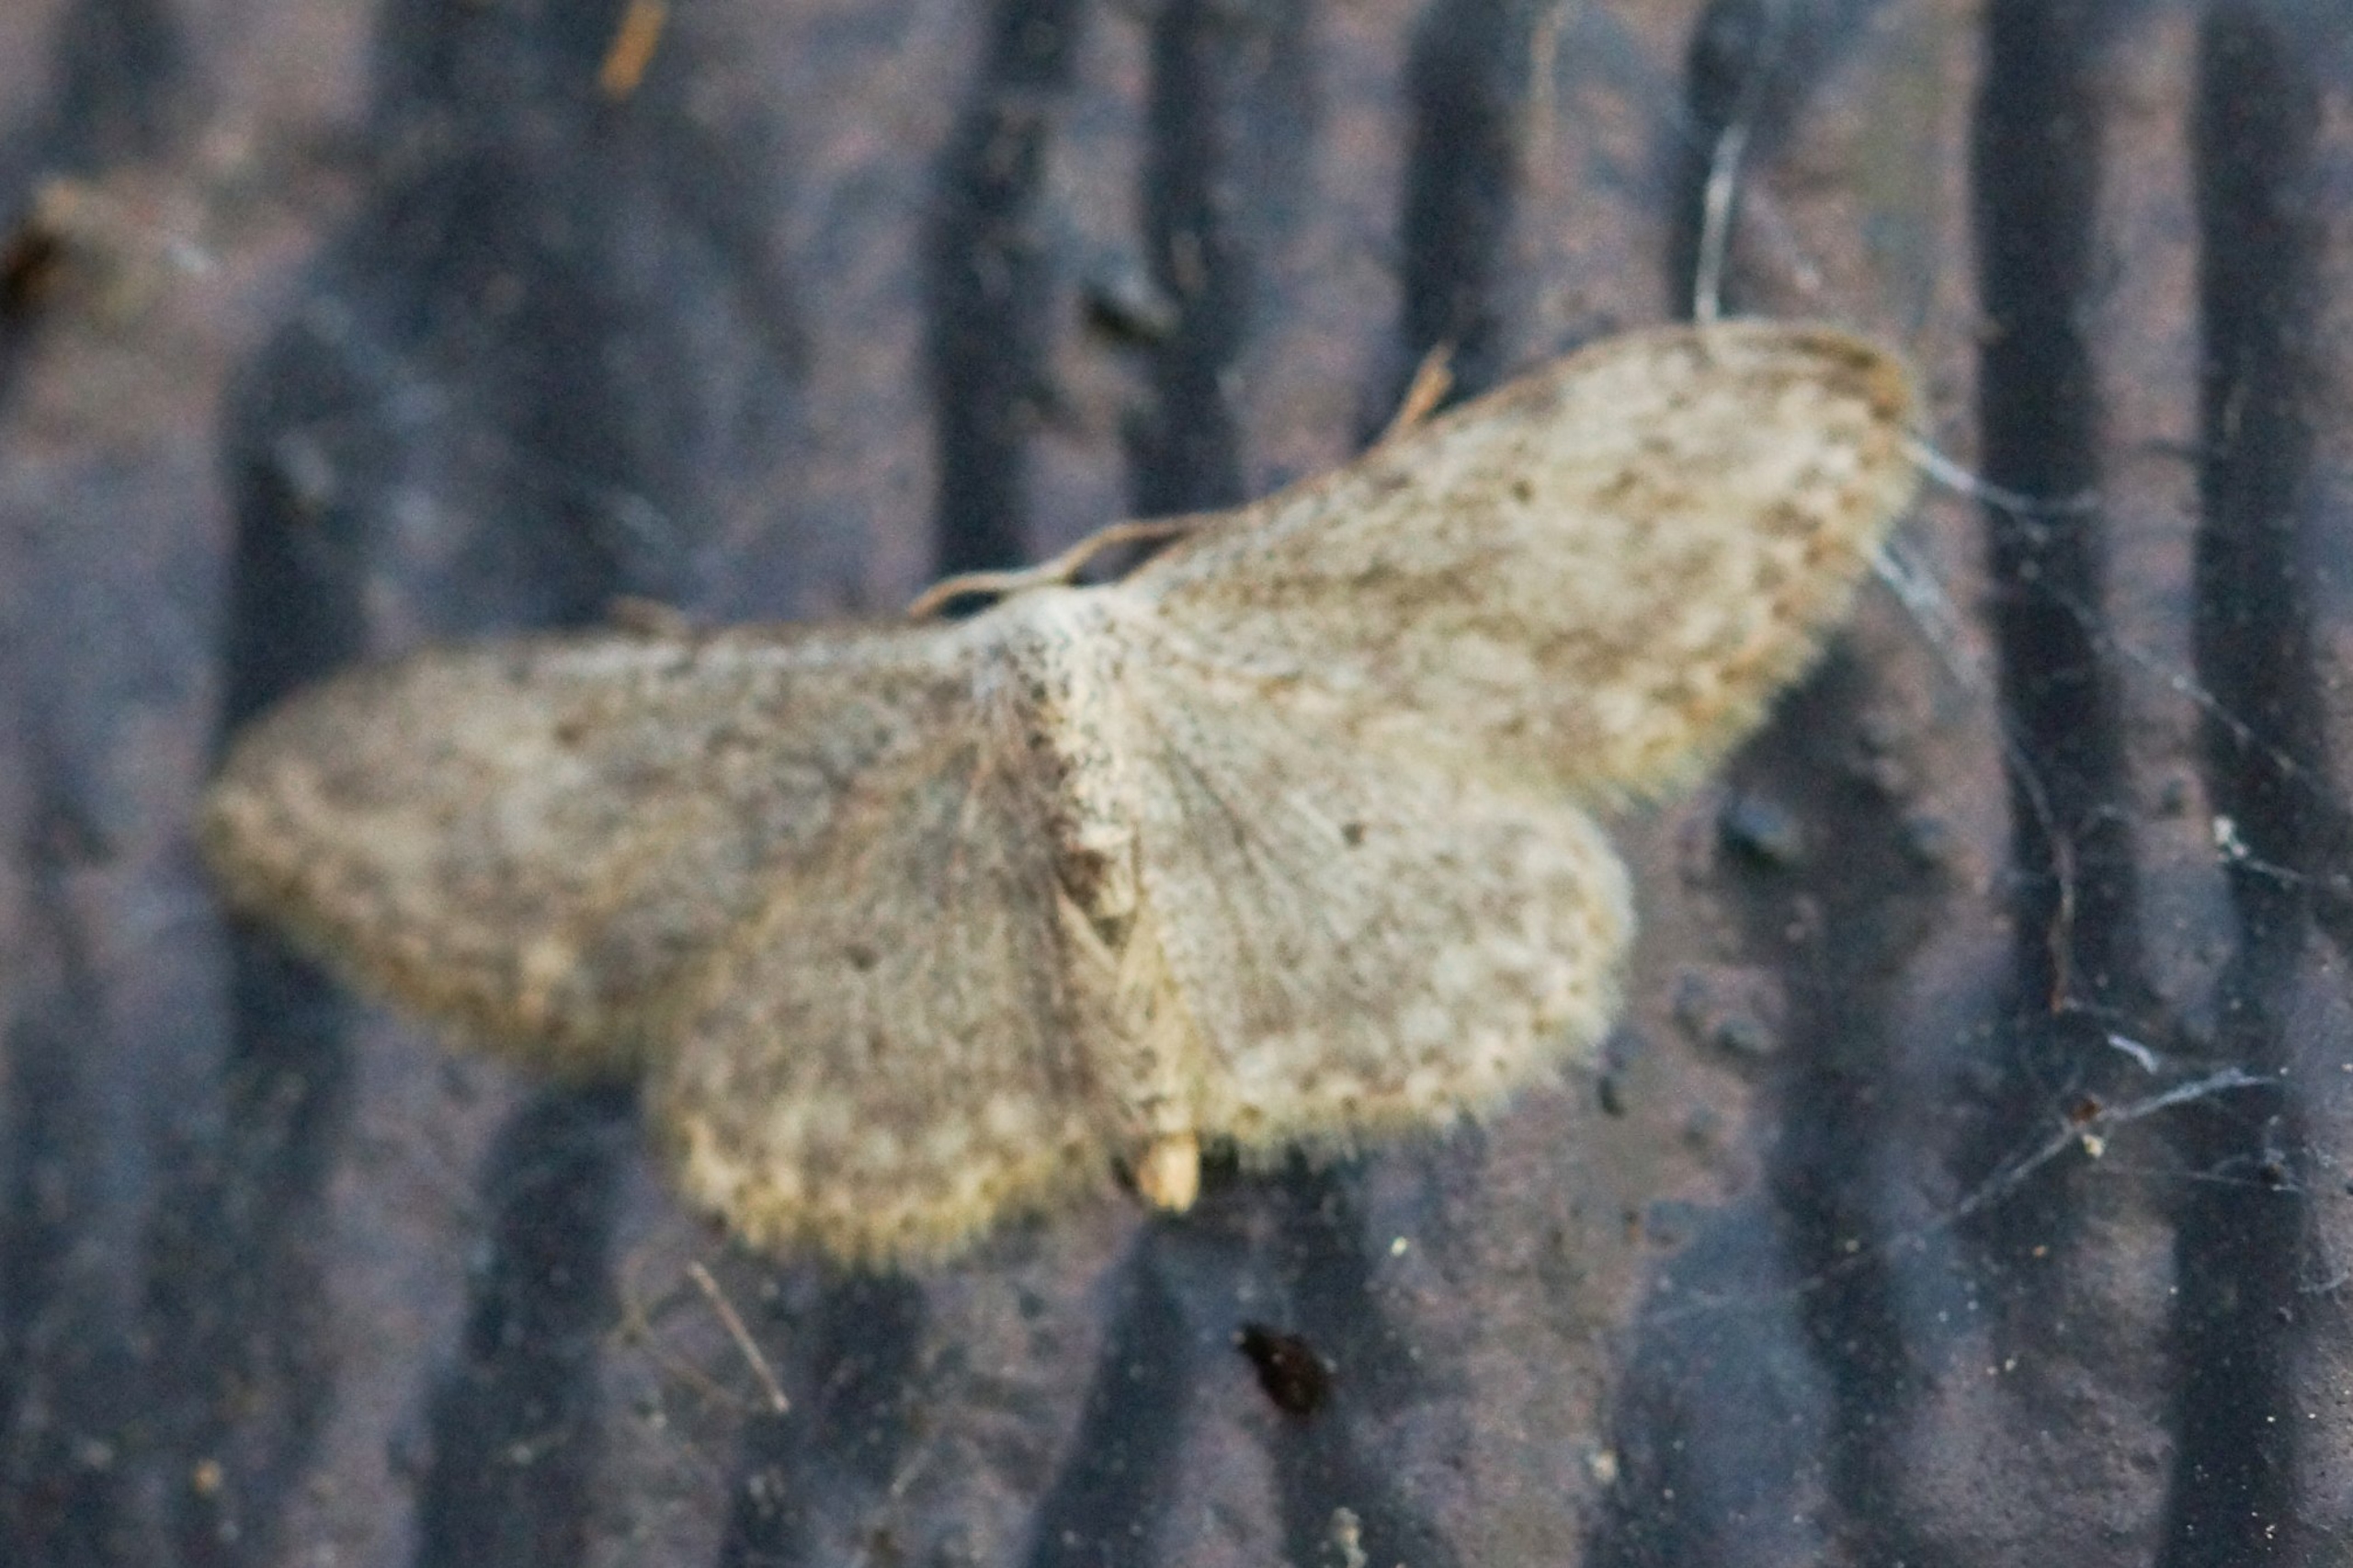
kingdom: Animalia
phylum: Arthropoda
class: Insecta
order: Lepidoptera
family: Geometridae
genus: Idaea
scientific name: Idaea seriata
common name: Gråplettet løvmåler
